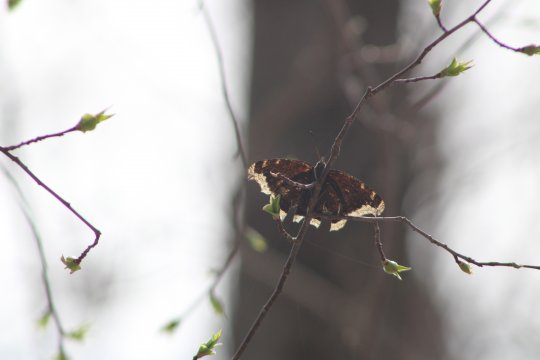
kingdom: Animalia
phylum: Arthropoda
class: Insecta
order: Lepidoptera
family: Nymphalidae
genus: Nymphalis
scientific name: Nymphalis antiopa
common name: Mourning Cloak
